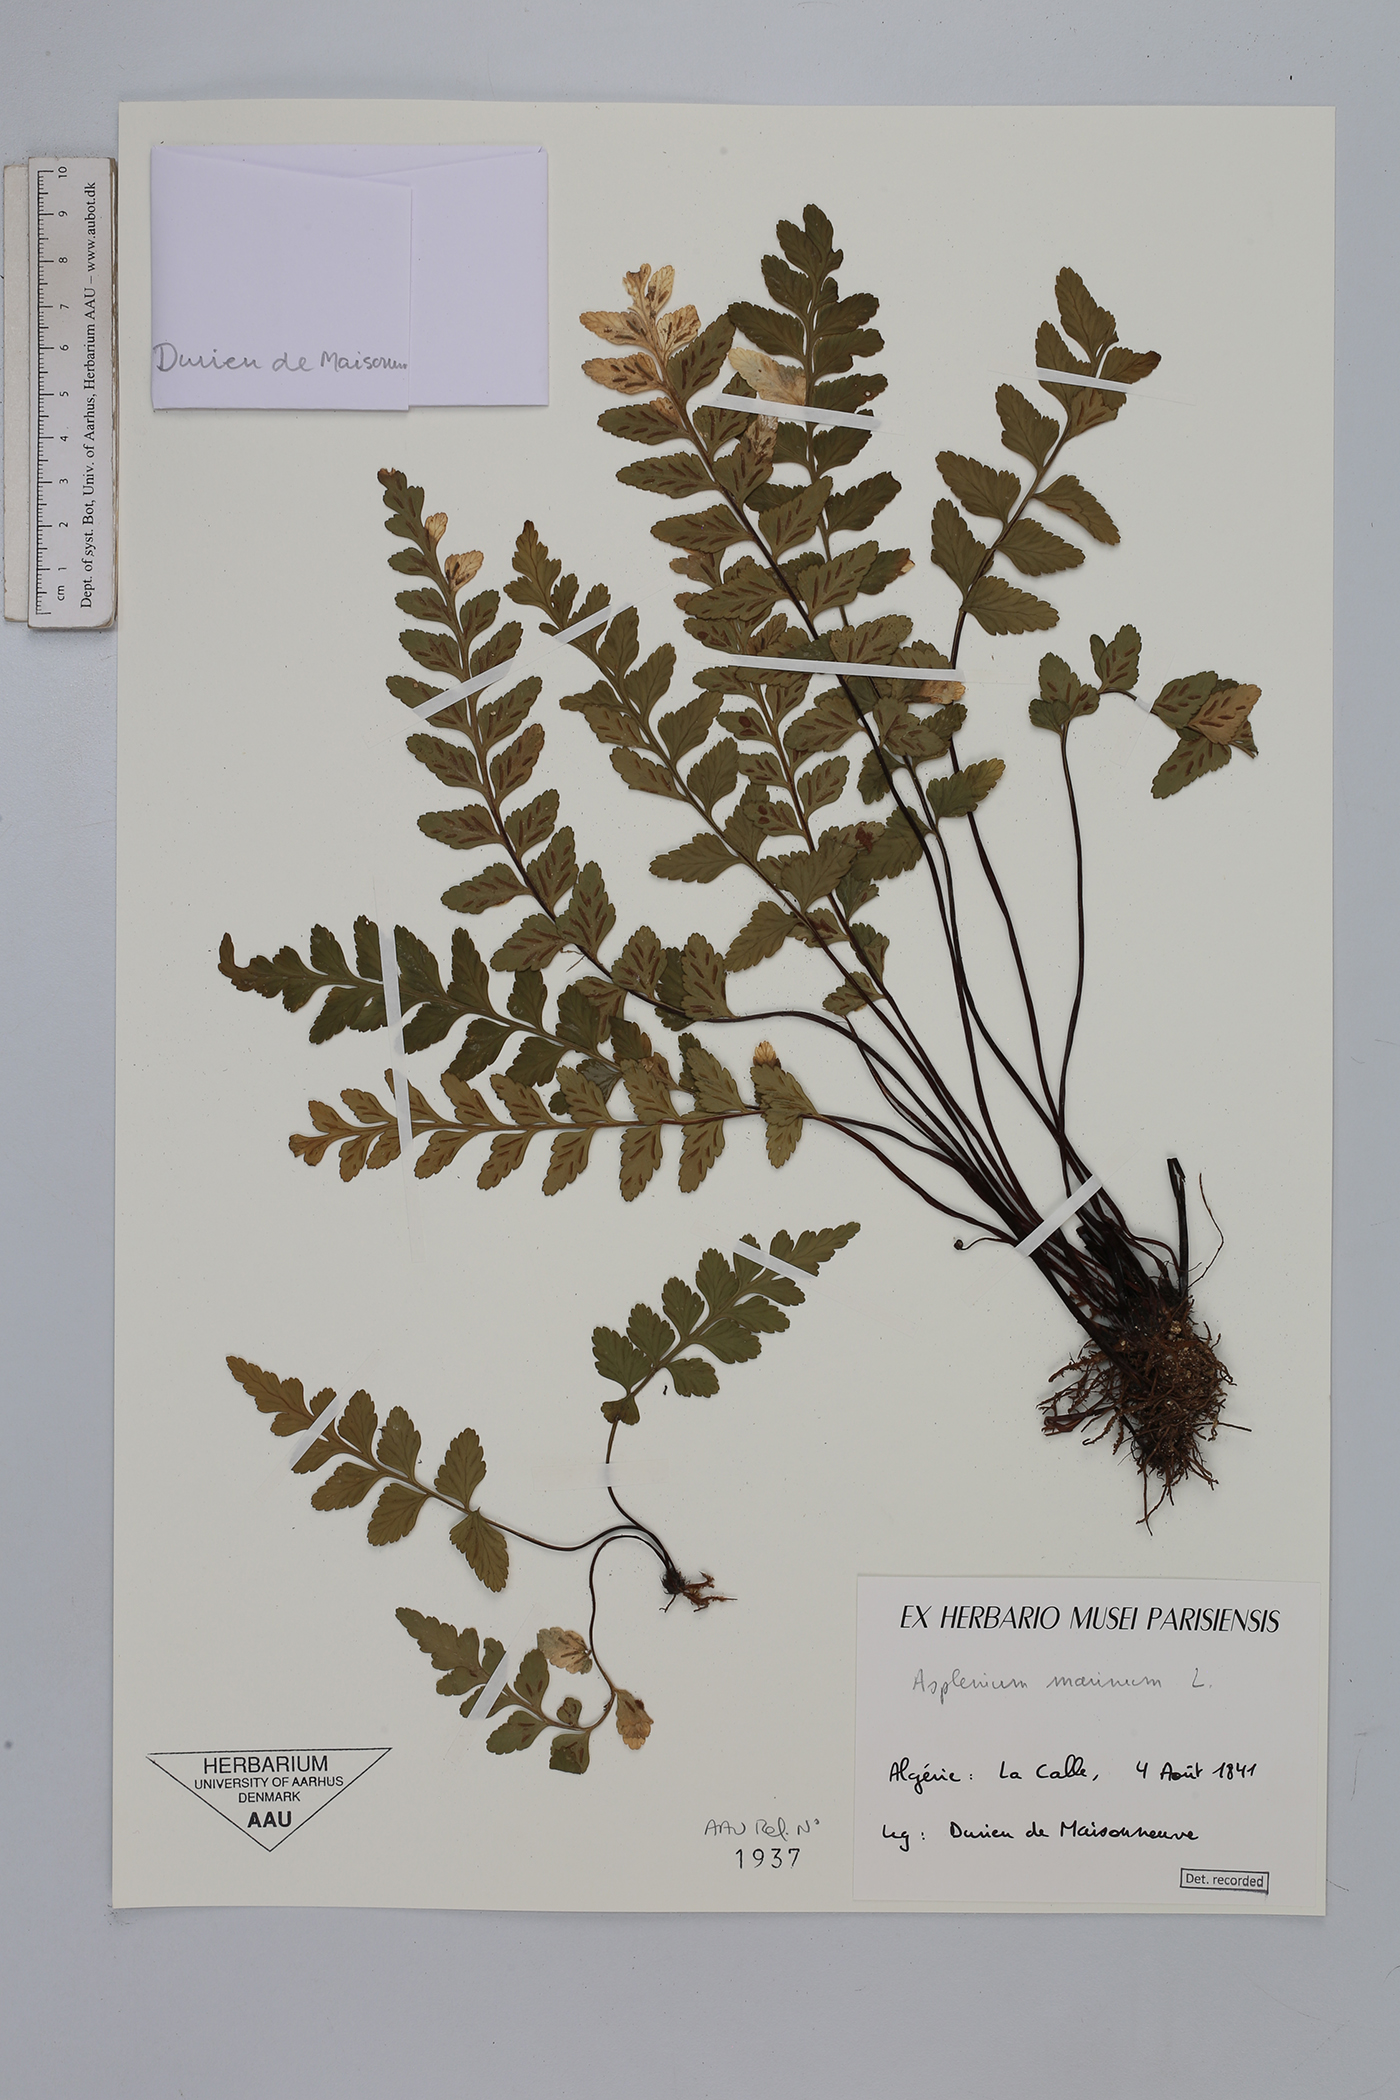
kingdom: Plantae
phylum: Tracheophyta
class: Polypodiopsida
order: Polypodiales
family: Aspleniaceae
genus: Asplenium
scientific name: Asplenium marinum
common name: Sea spleenwort
